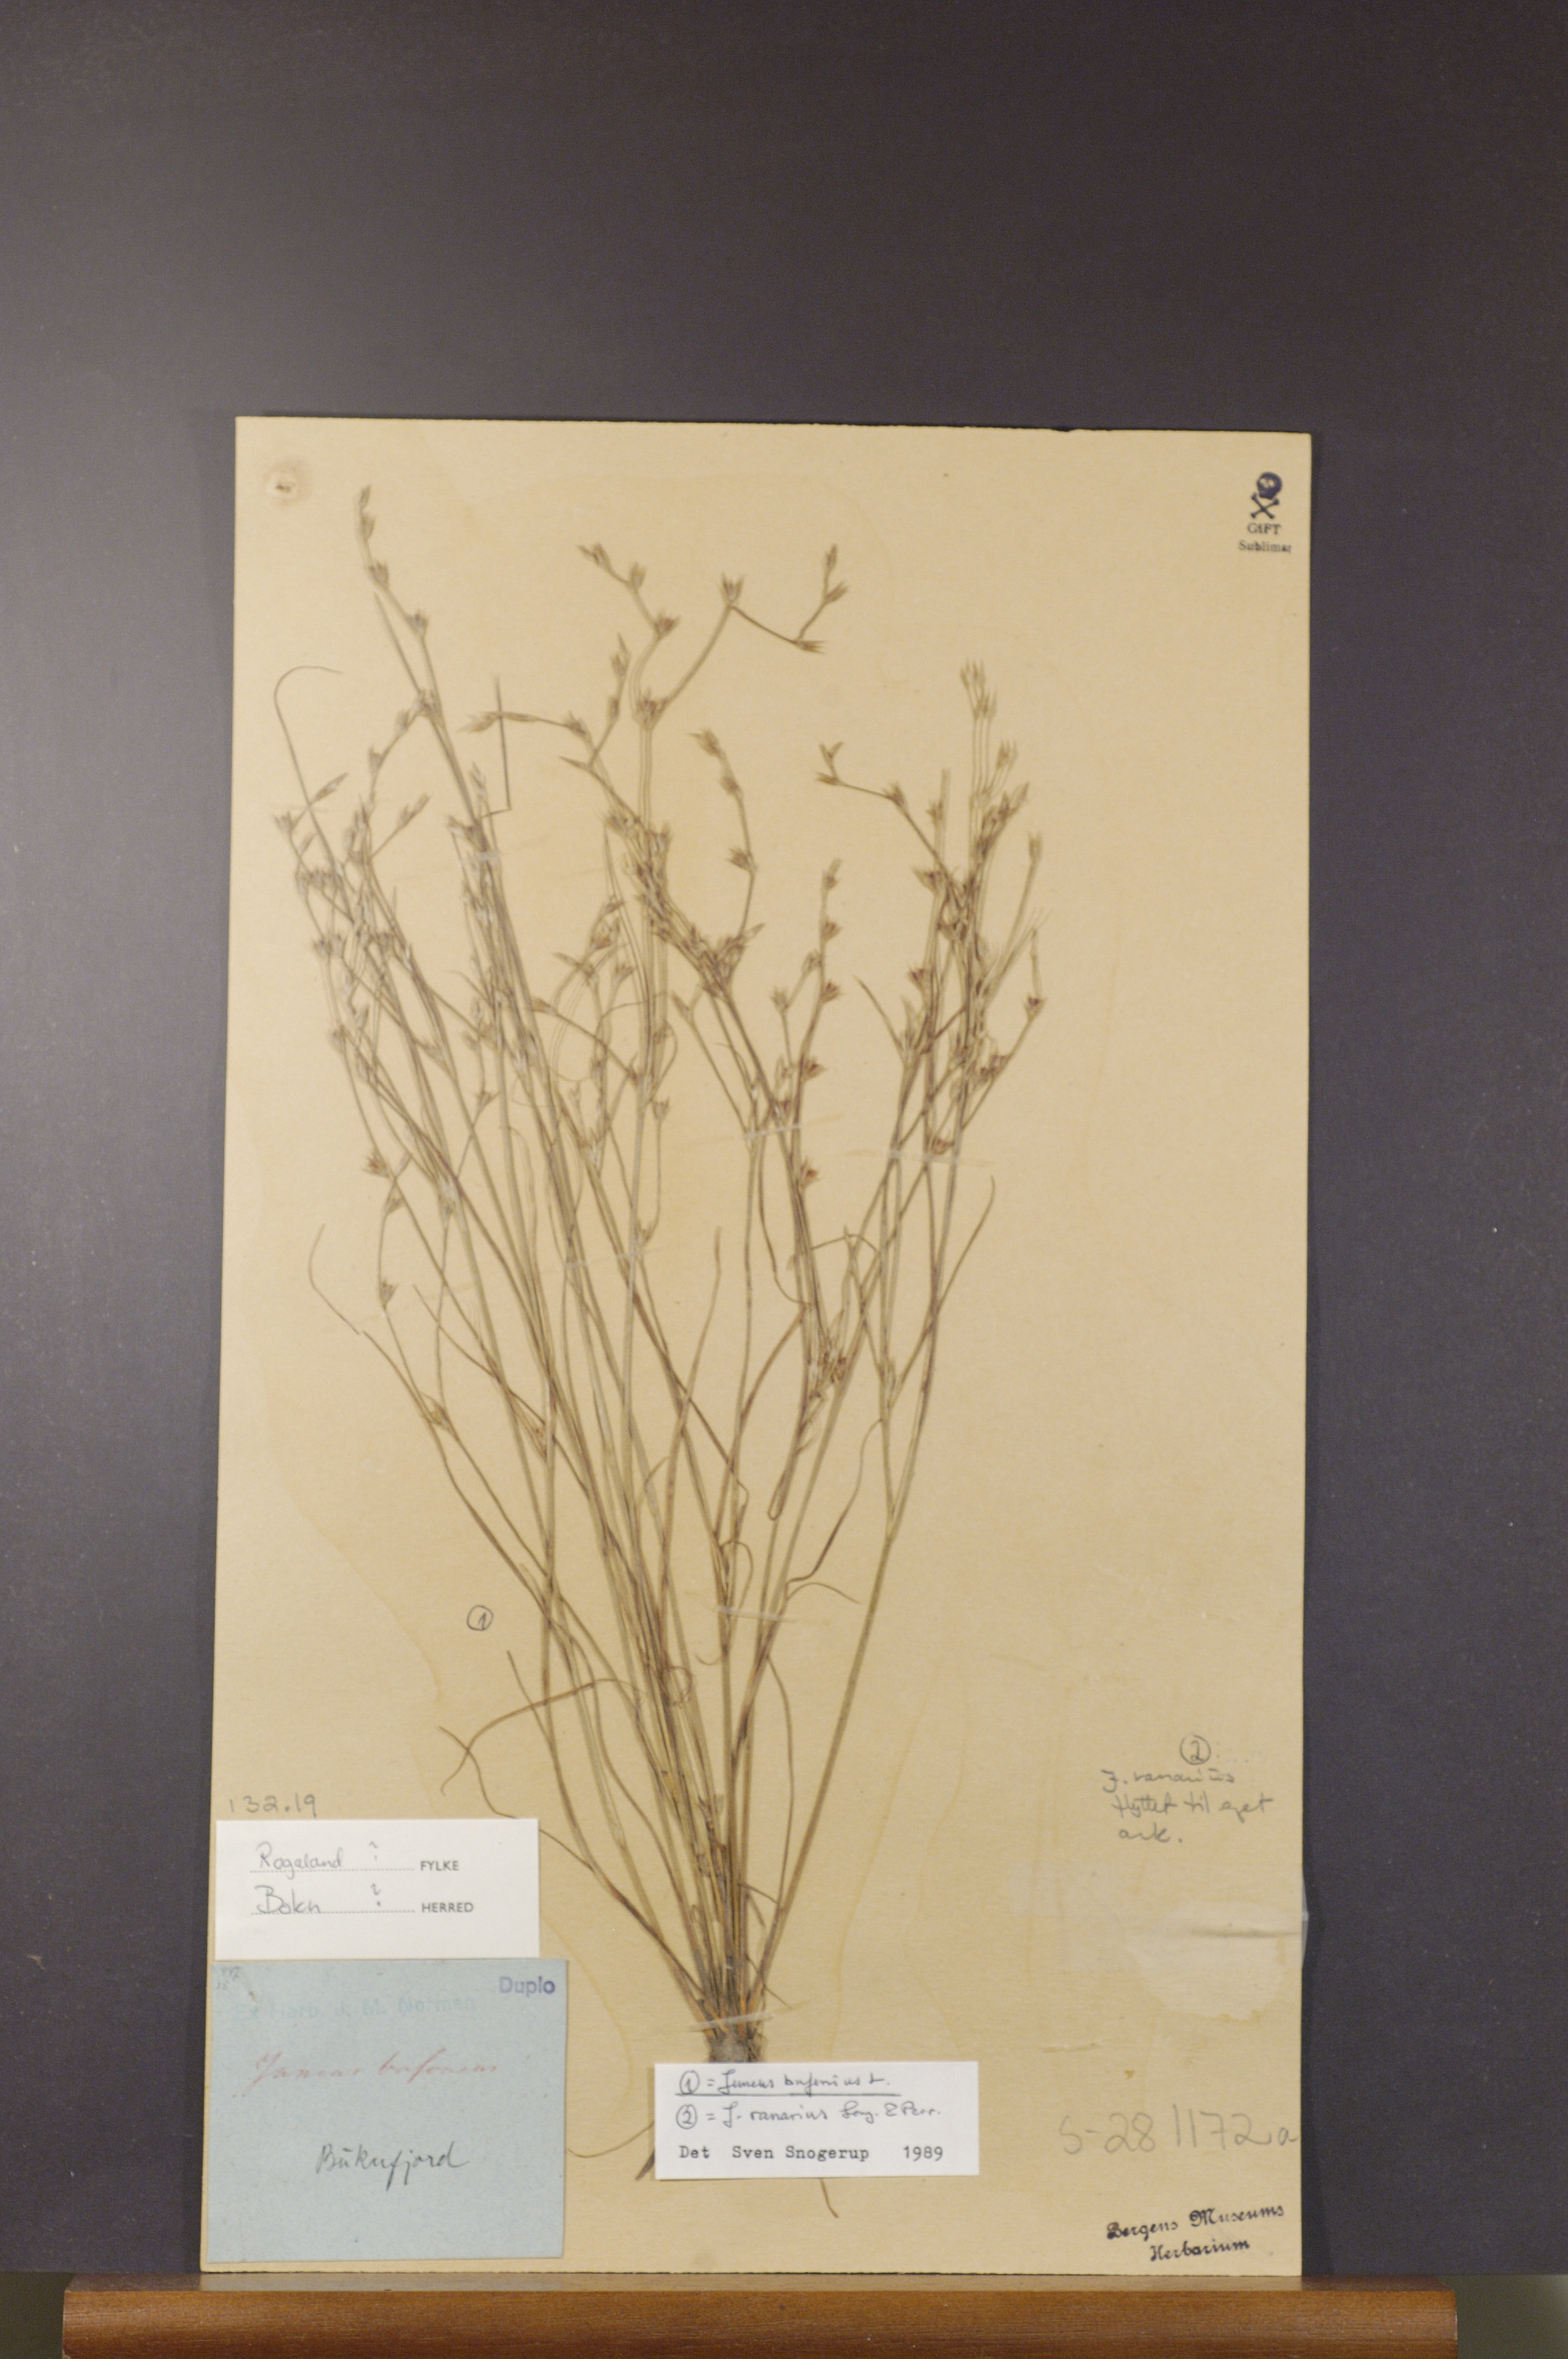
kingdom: Plantae
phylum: Tracheophyta
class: Liliopsida
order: Poales
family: Juncaceae
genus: Juncus
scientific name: Juncus bufonius
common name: Toad rush
